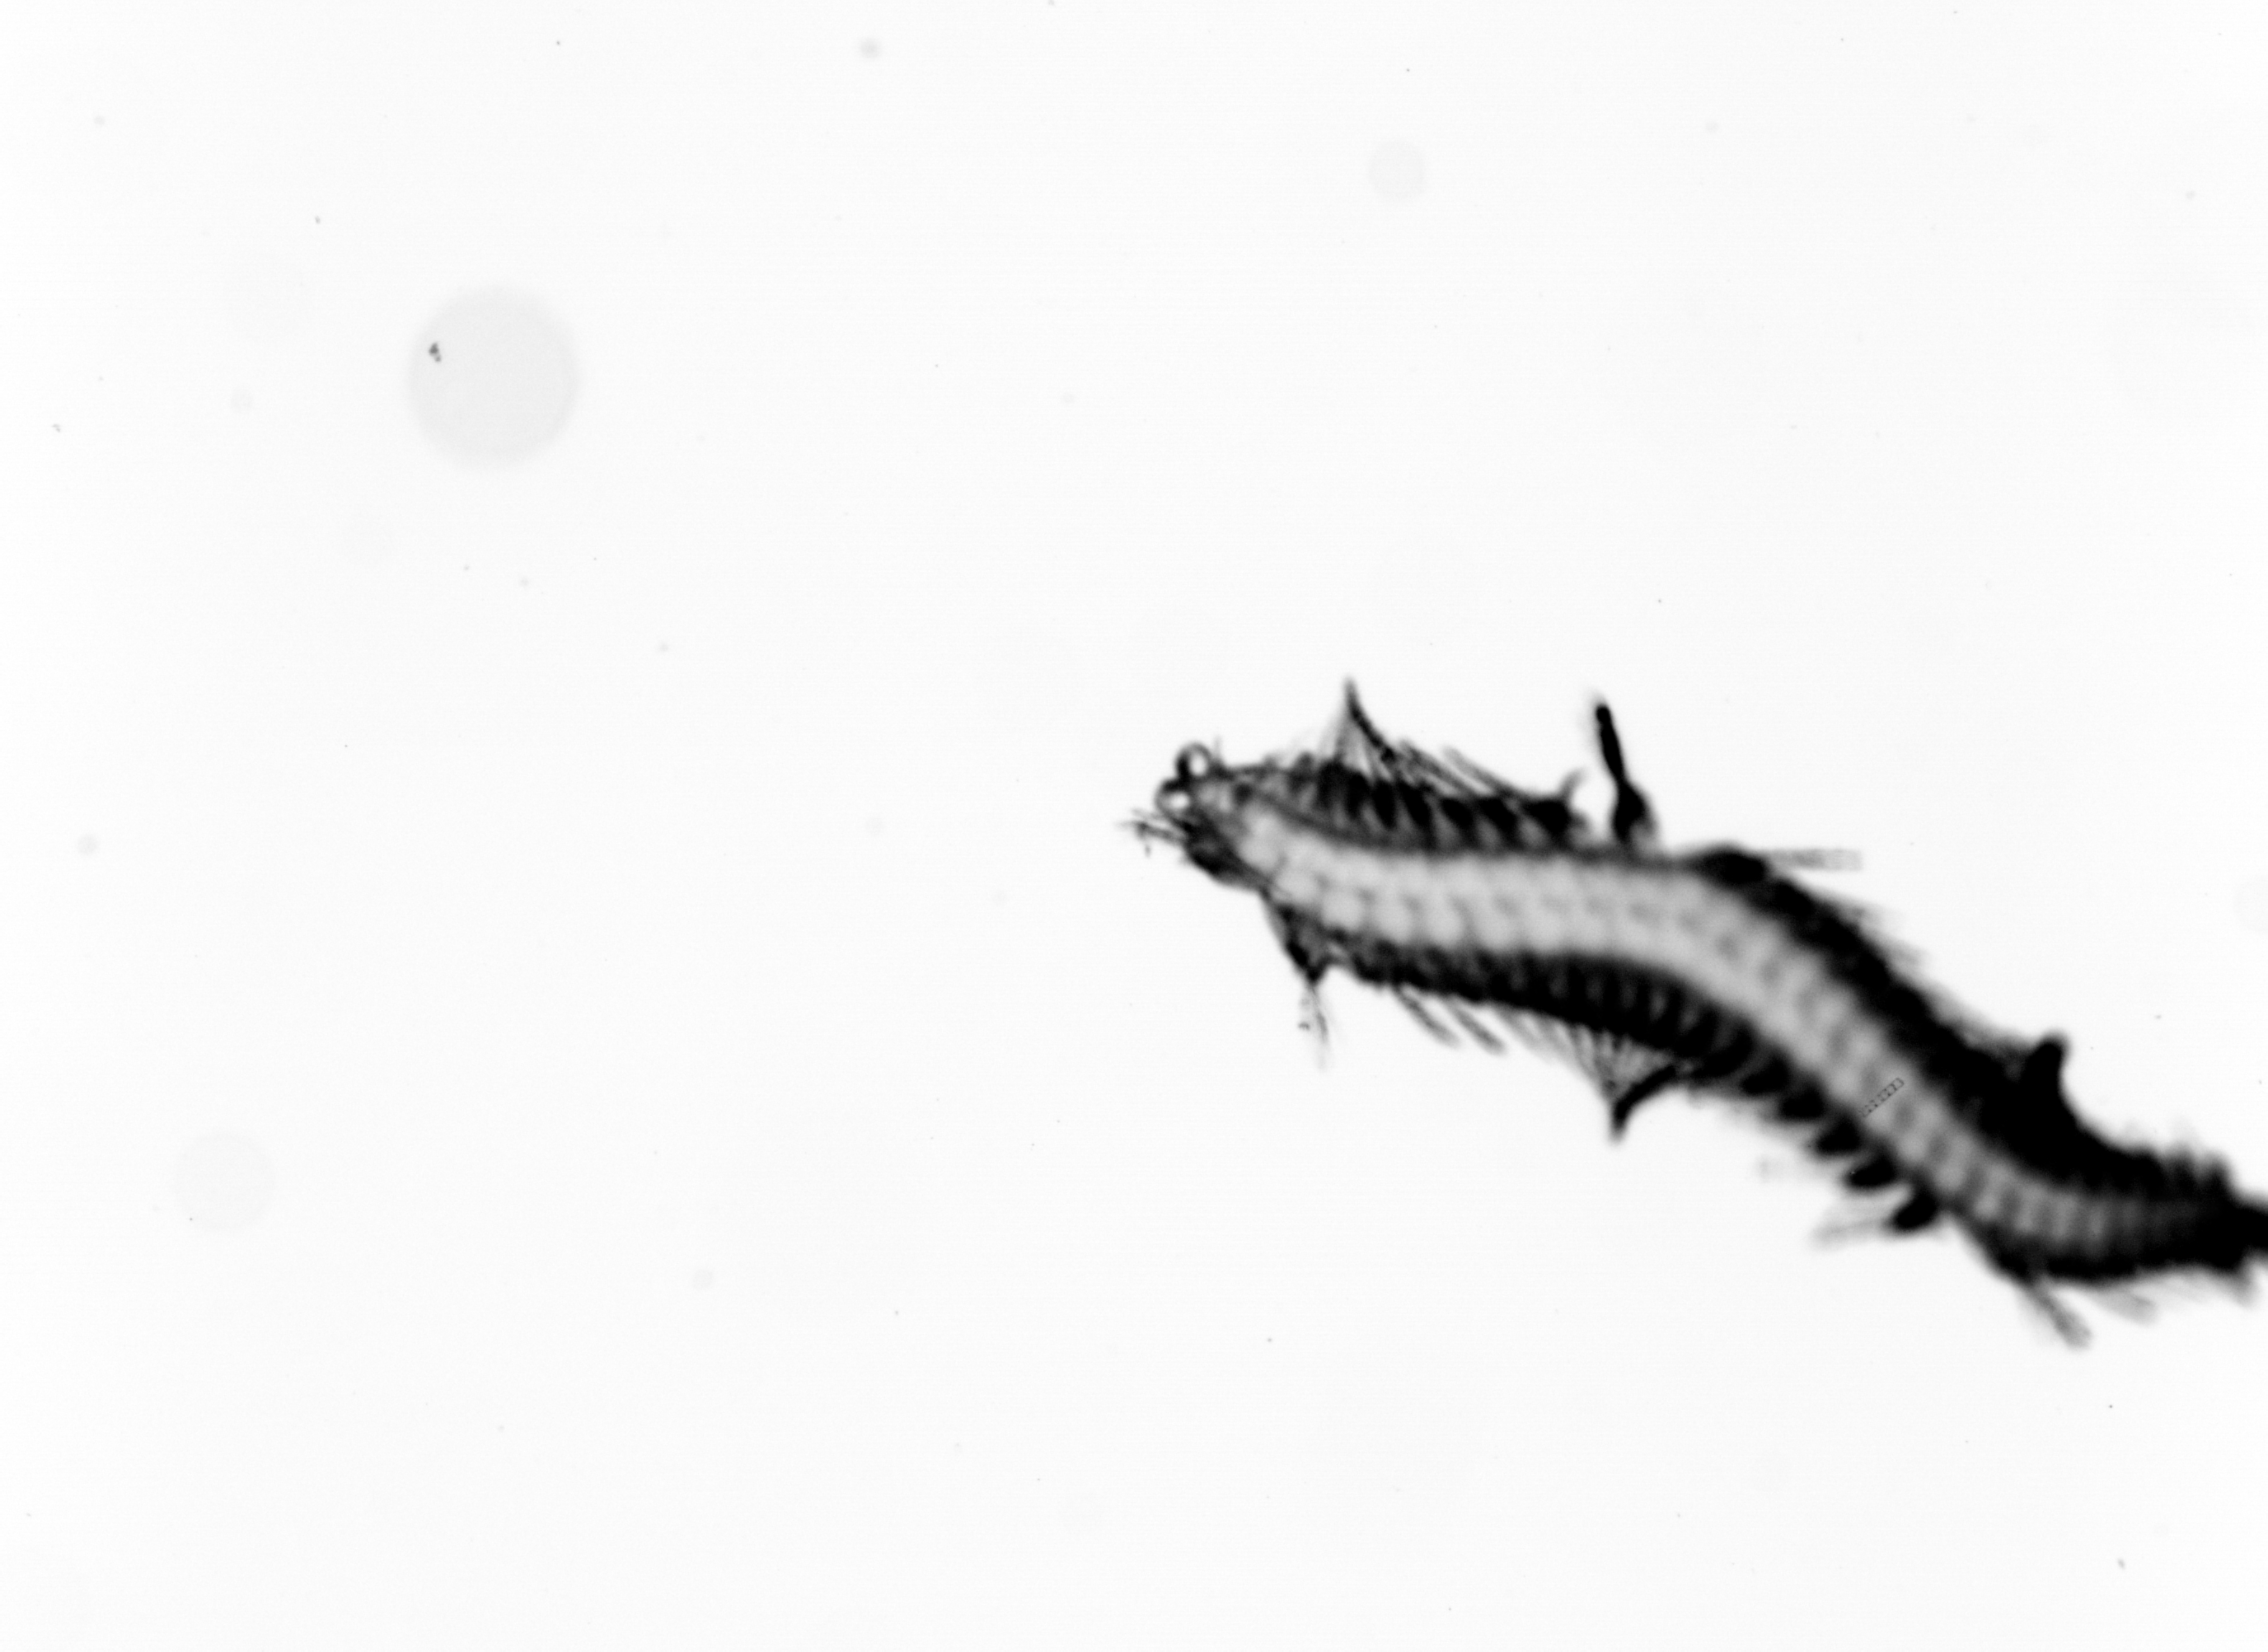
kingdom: Animalia
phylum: Annelida
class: Polychaeta
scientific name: Polychaeta
